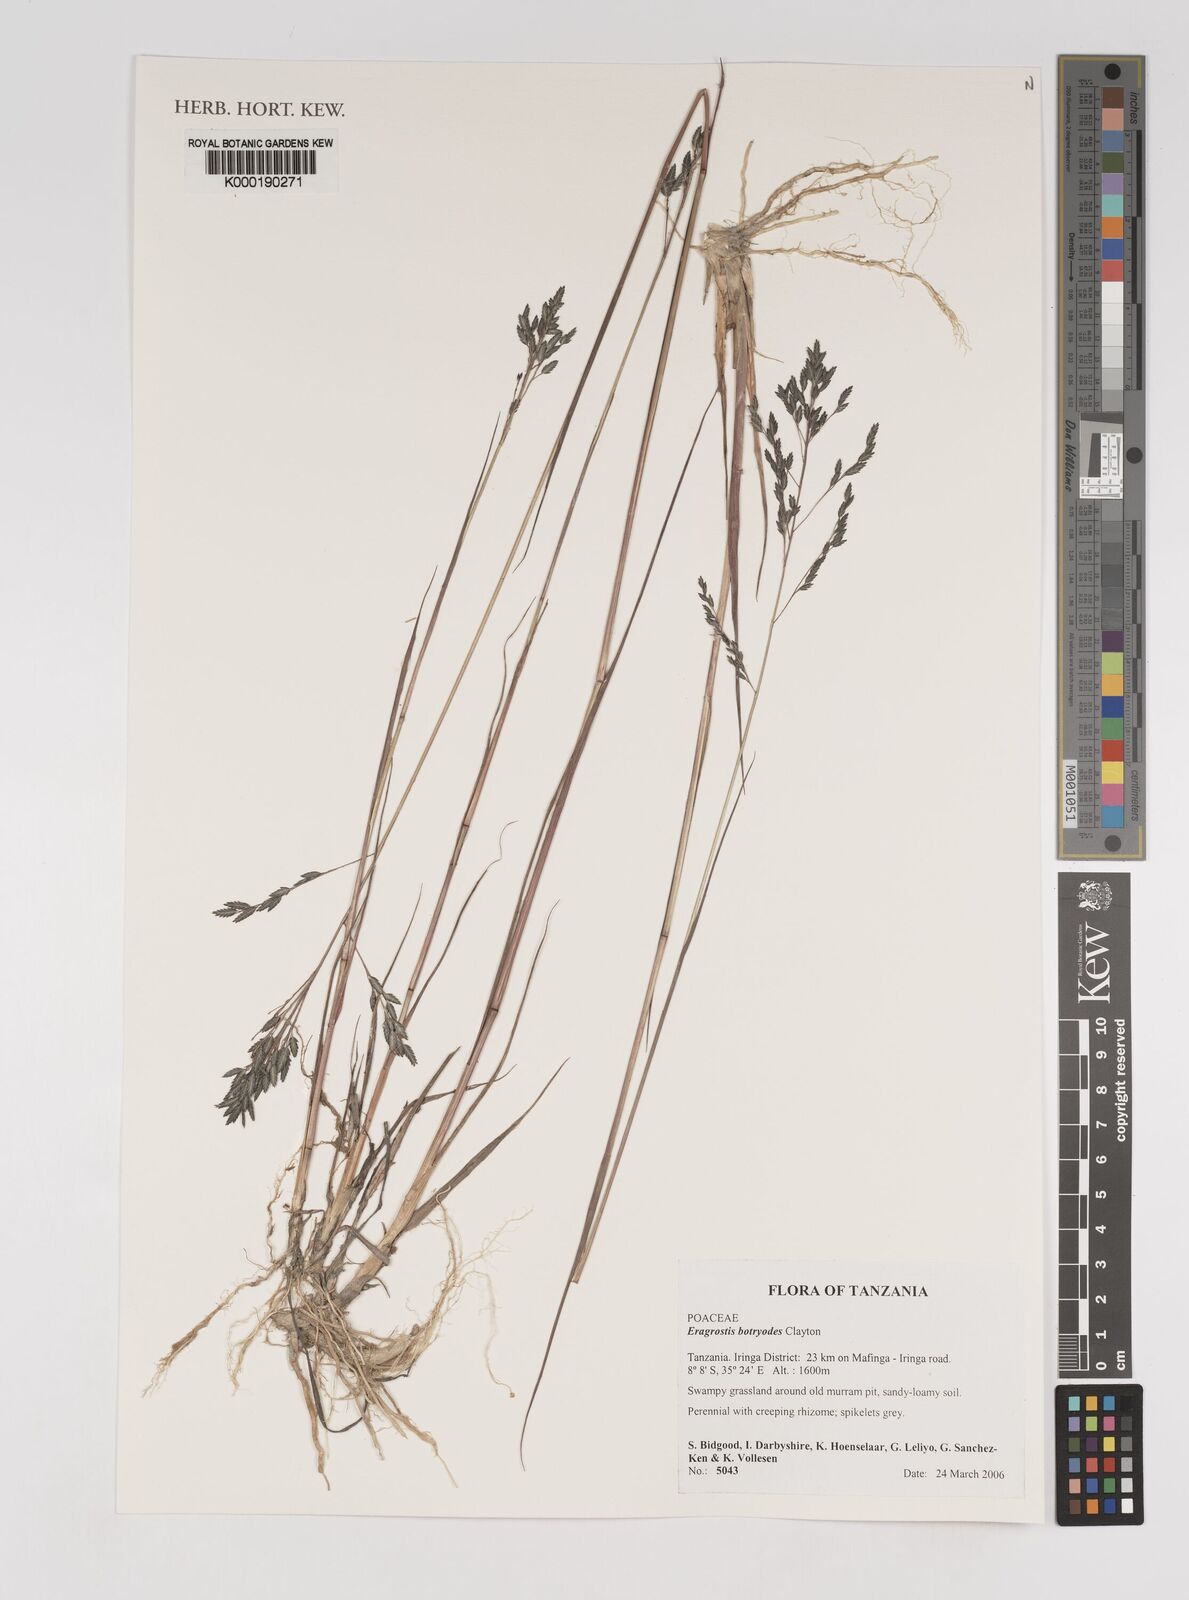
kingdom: Plantae
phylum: Tracheophyta
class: Liliopsida
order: Poales
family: Poaceae
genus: Eragrostis
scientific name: Eragrostis botryodes
